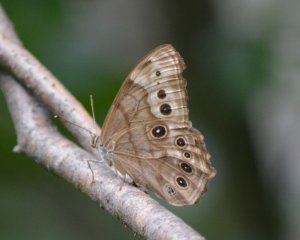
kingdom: Animalia
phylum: Arthropoda
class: Insecta
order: Lepidoptera
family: Nymphalidae
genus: Lethe
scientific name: Lethe anthedon
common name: Northern Pearly-Eye
